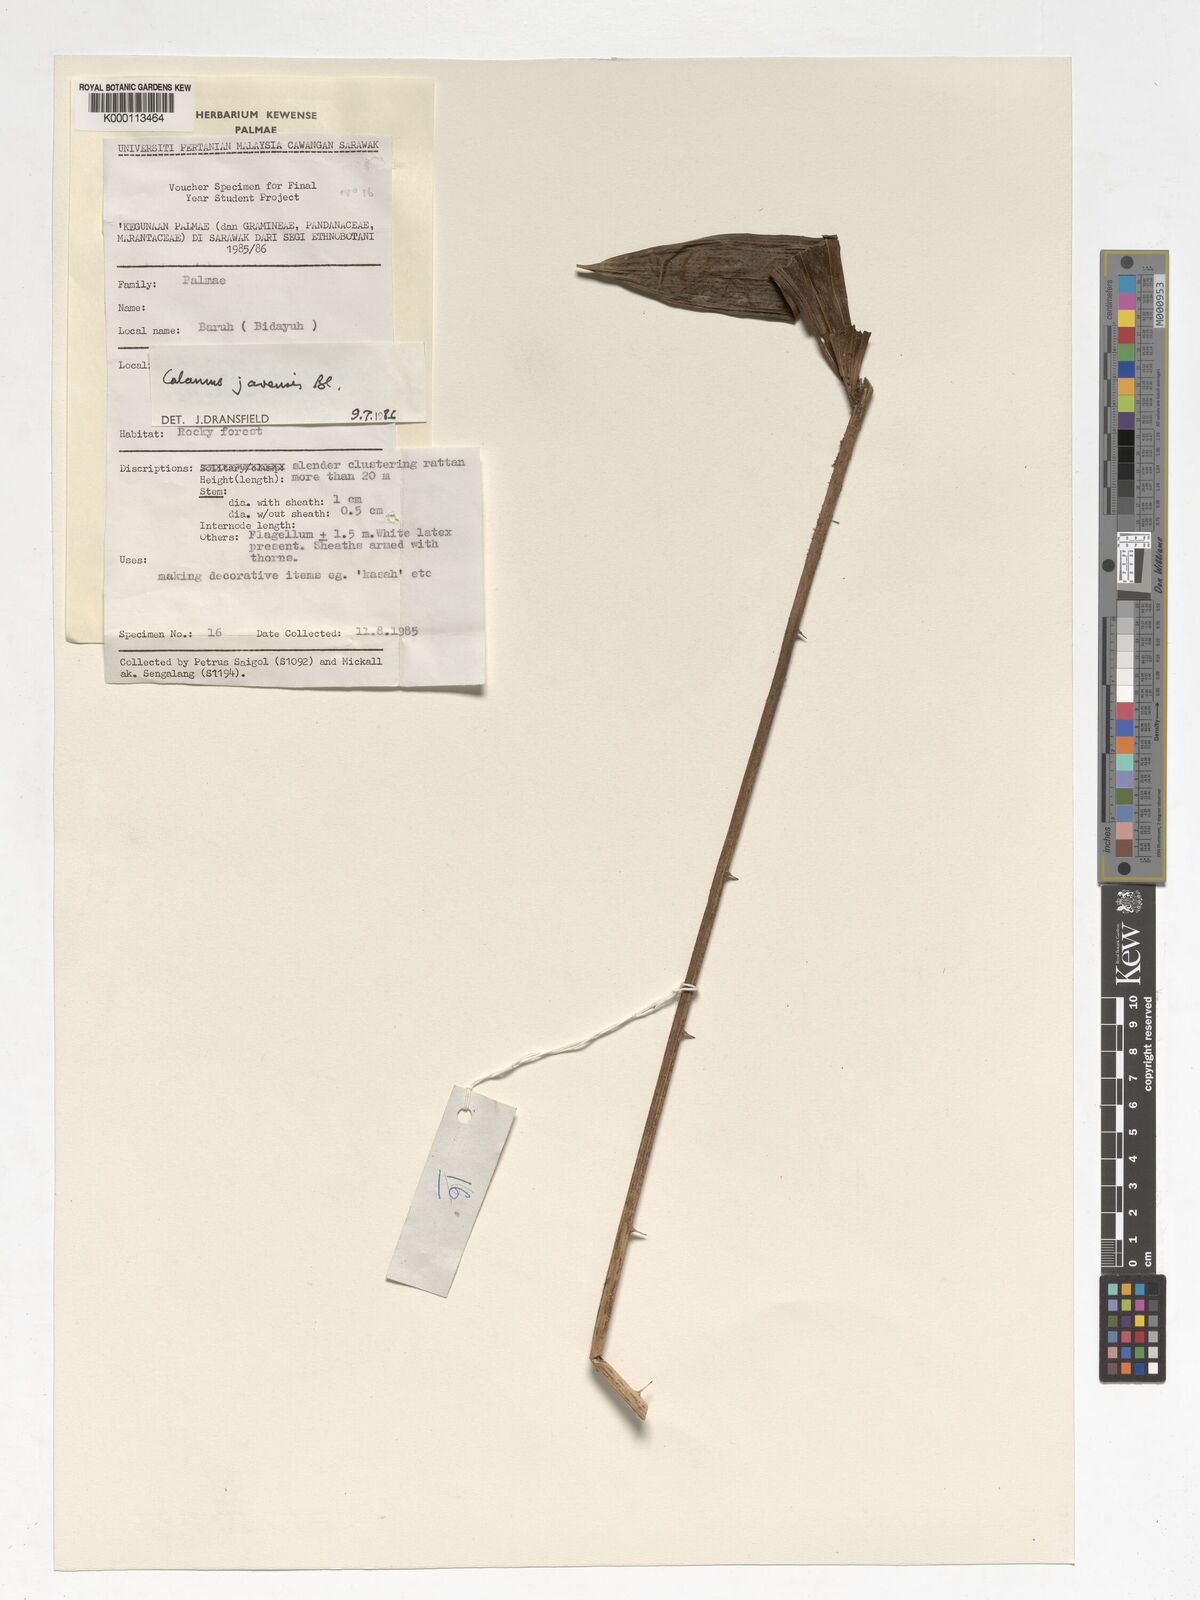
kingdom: Plantae
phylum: Tracheophyta
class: Liliopsida
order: Arecales
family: Arecaceae
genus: Calamus
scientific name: Calamus javensis
